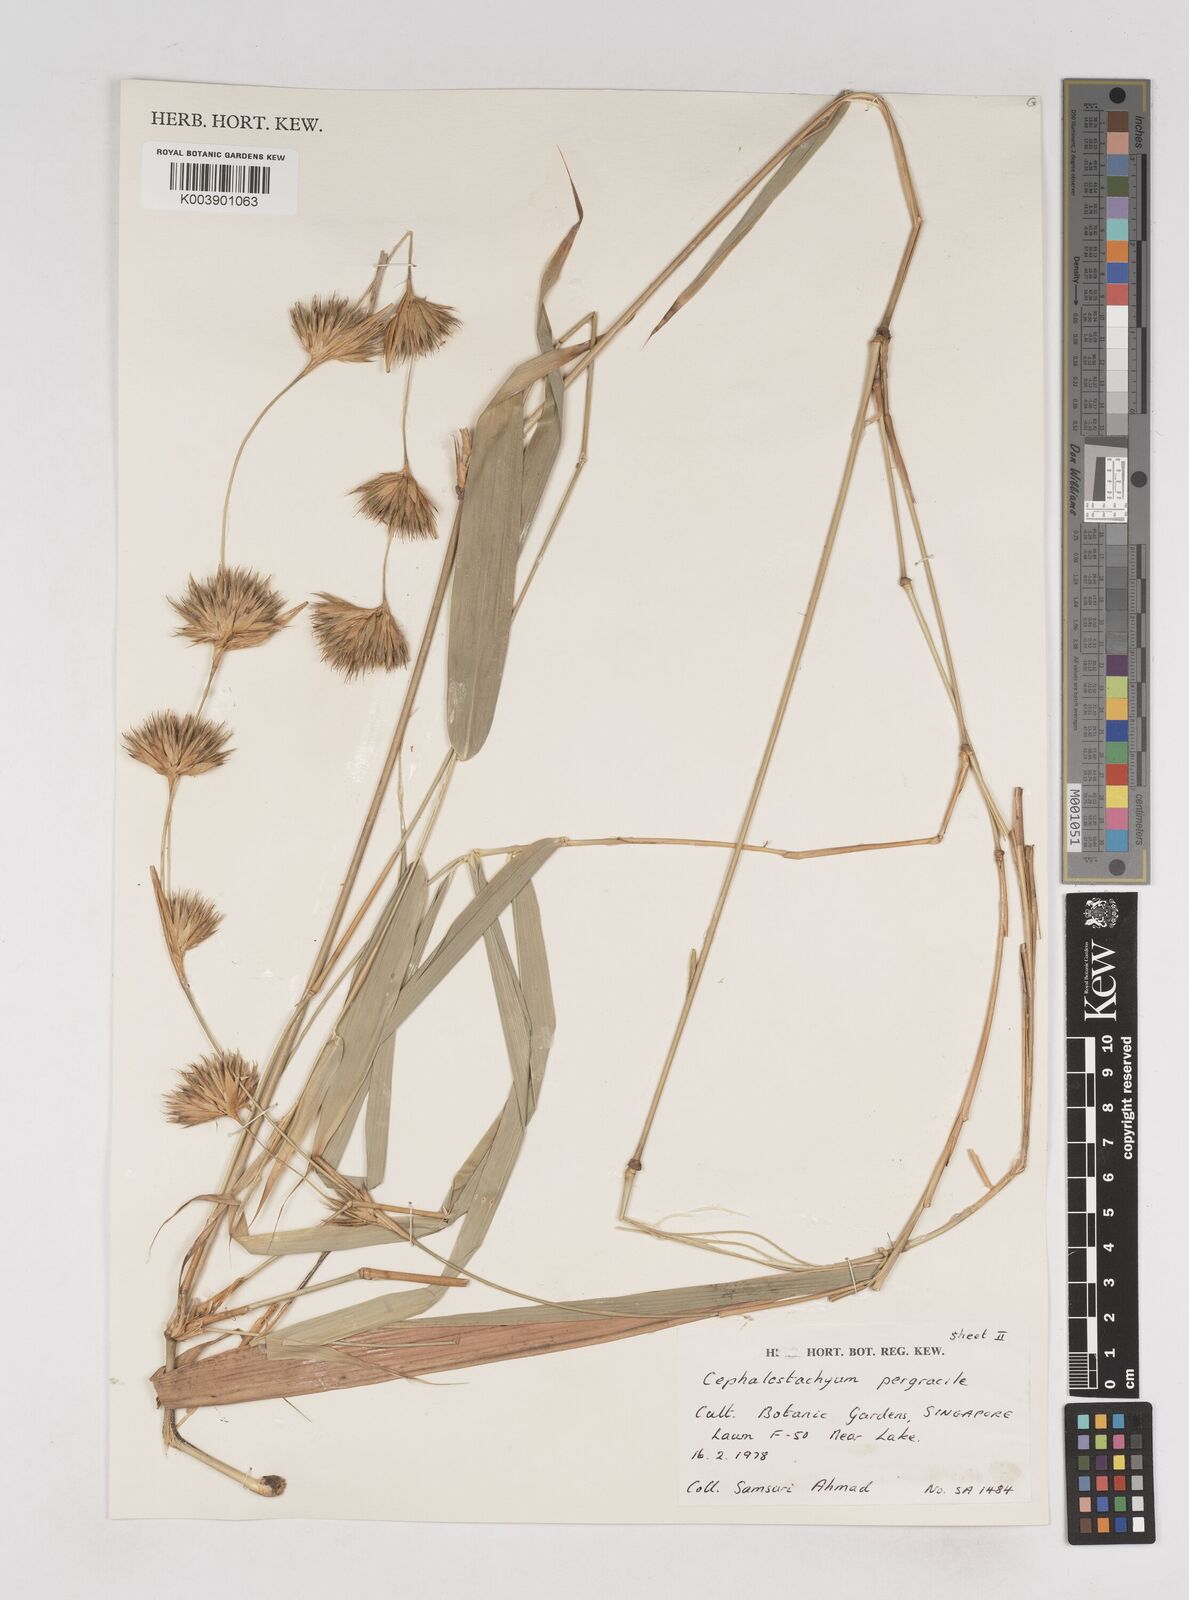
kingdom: Plantae
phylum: Tracheophyta
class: Liliopsida
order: Poales
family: Poaceae
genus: Schizostachyum
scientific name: Schizostachyum pergracile
